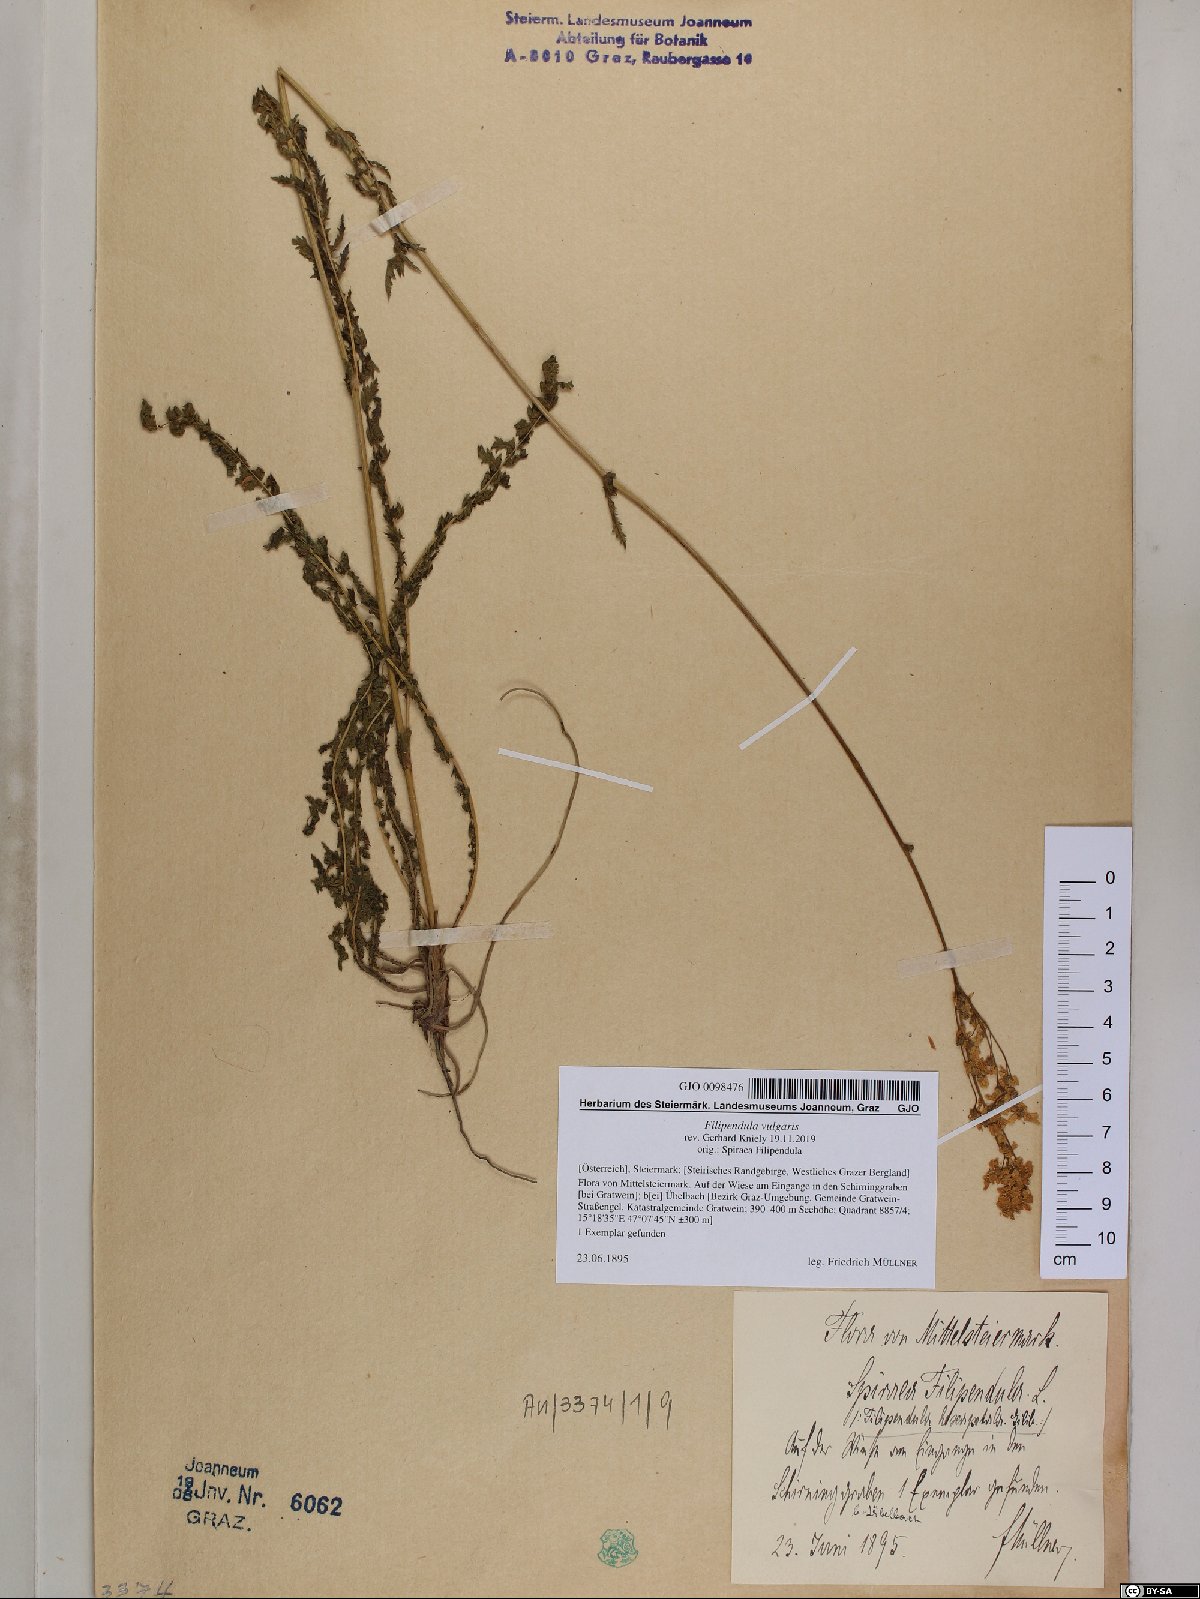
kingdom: Plantae
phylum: Tracheophyta
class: Magnoliopsida
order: Rosales
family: Rosaceae
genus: Filipendula
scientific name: Filipendula vulgaris
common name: Dropwort
